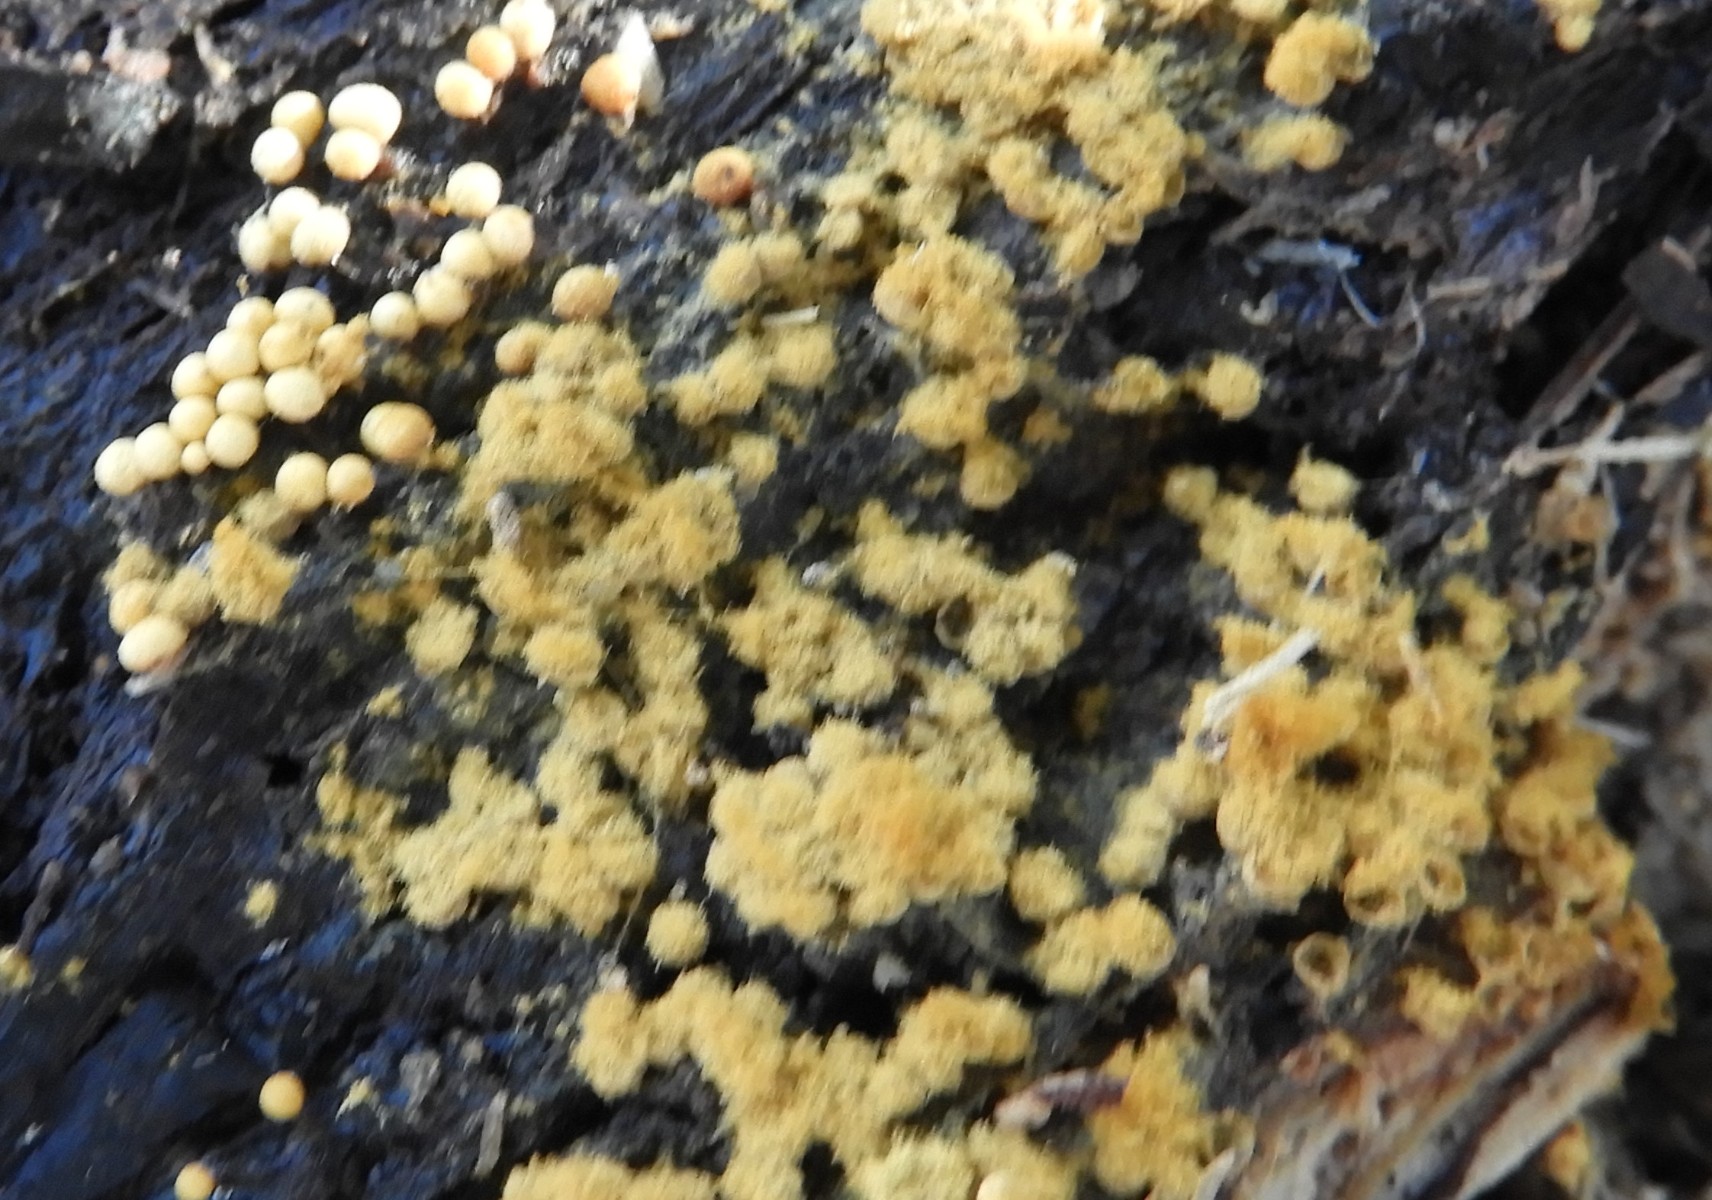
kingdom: Protozoa
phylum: Mycetozoa
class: Myxomycetes
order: Trichiales
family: Trichiaceae
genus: Trichia
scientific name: Trichia
